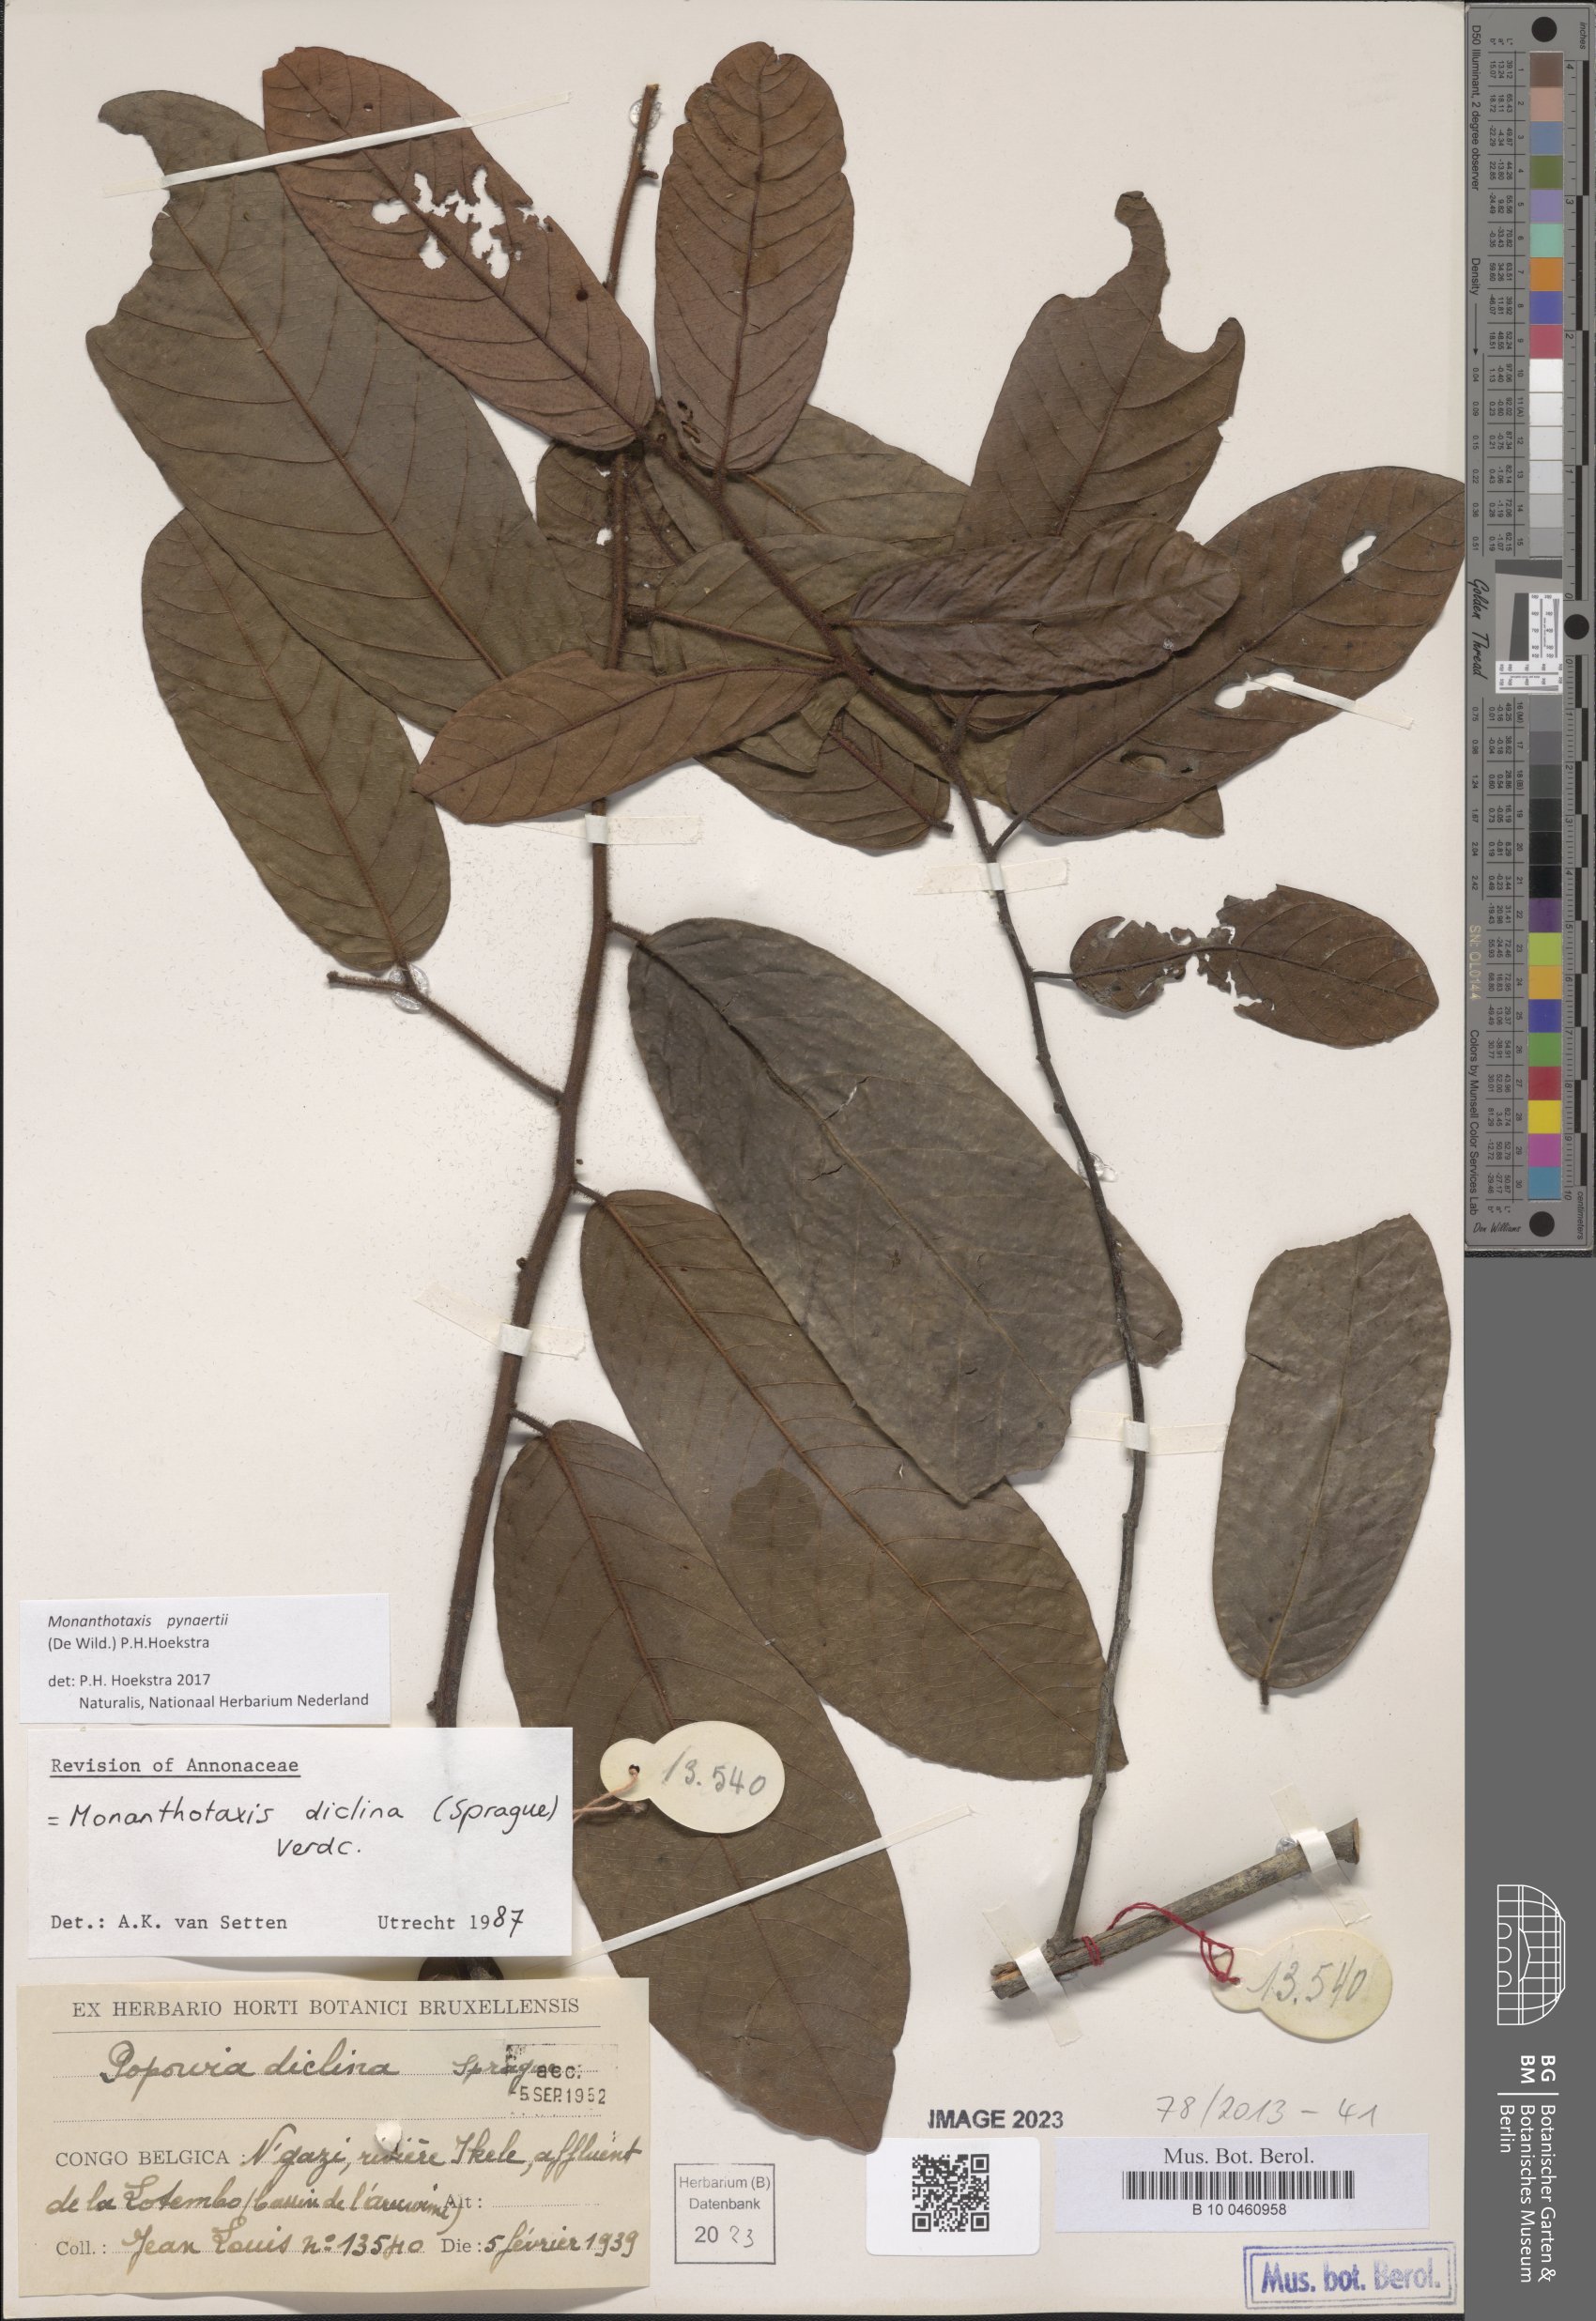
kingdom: Plantae
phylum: Tracheophyta
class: Magnoliopsida
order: Magnoliales
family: Annonaceae
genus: Monanthotaxis
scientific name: Monanthotaxis diclina
